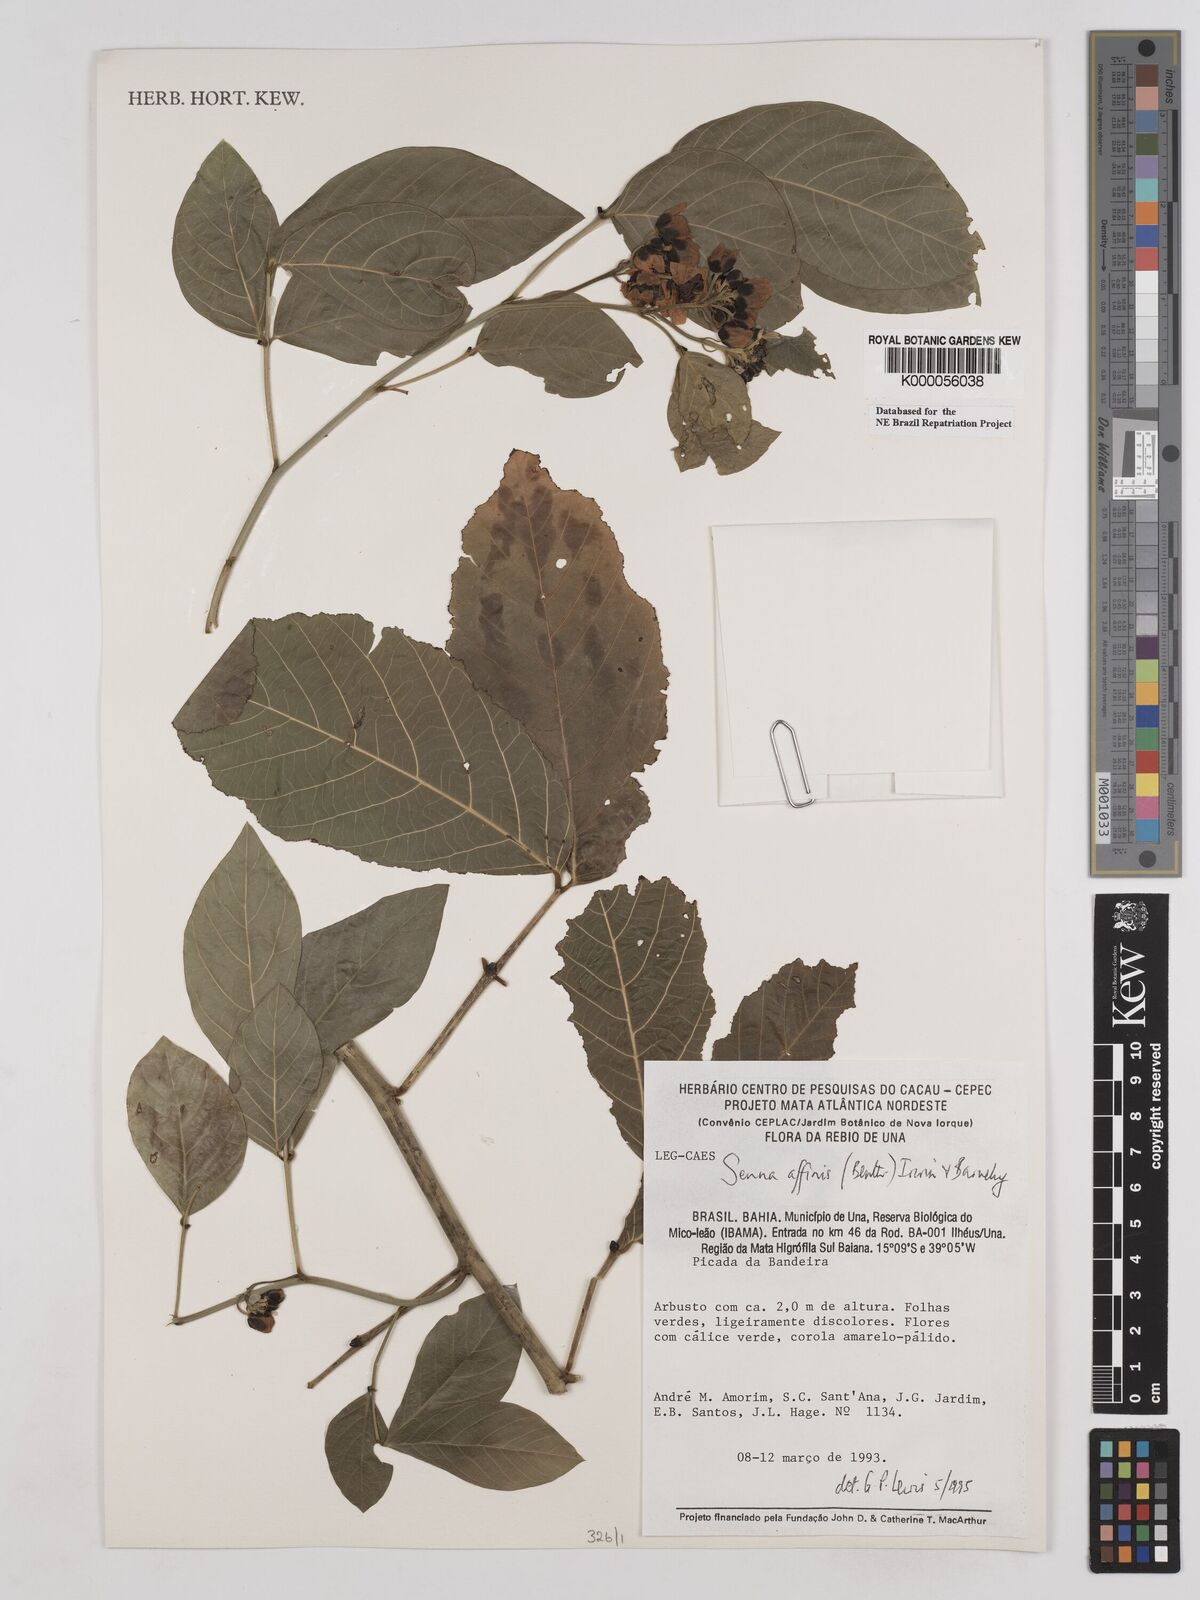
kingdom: Plantae
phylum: Tracheophyta
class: Magnoliopsida
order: Fabales
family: Fabaceae
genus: Senna
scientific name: Senna affinis
